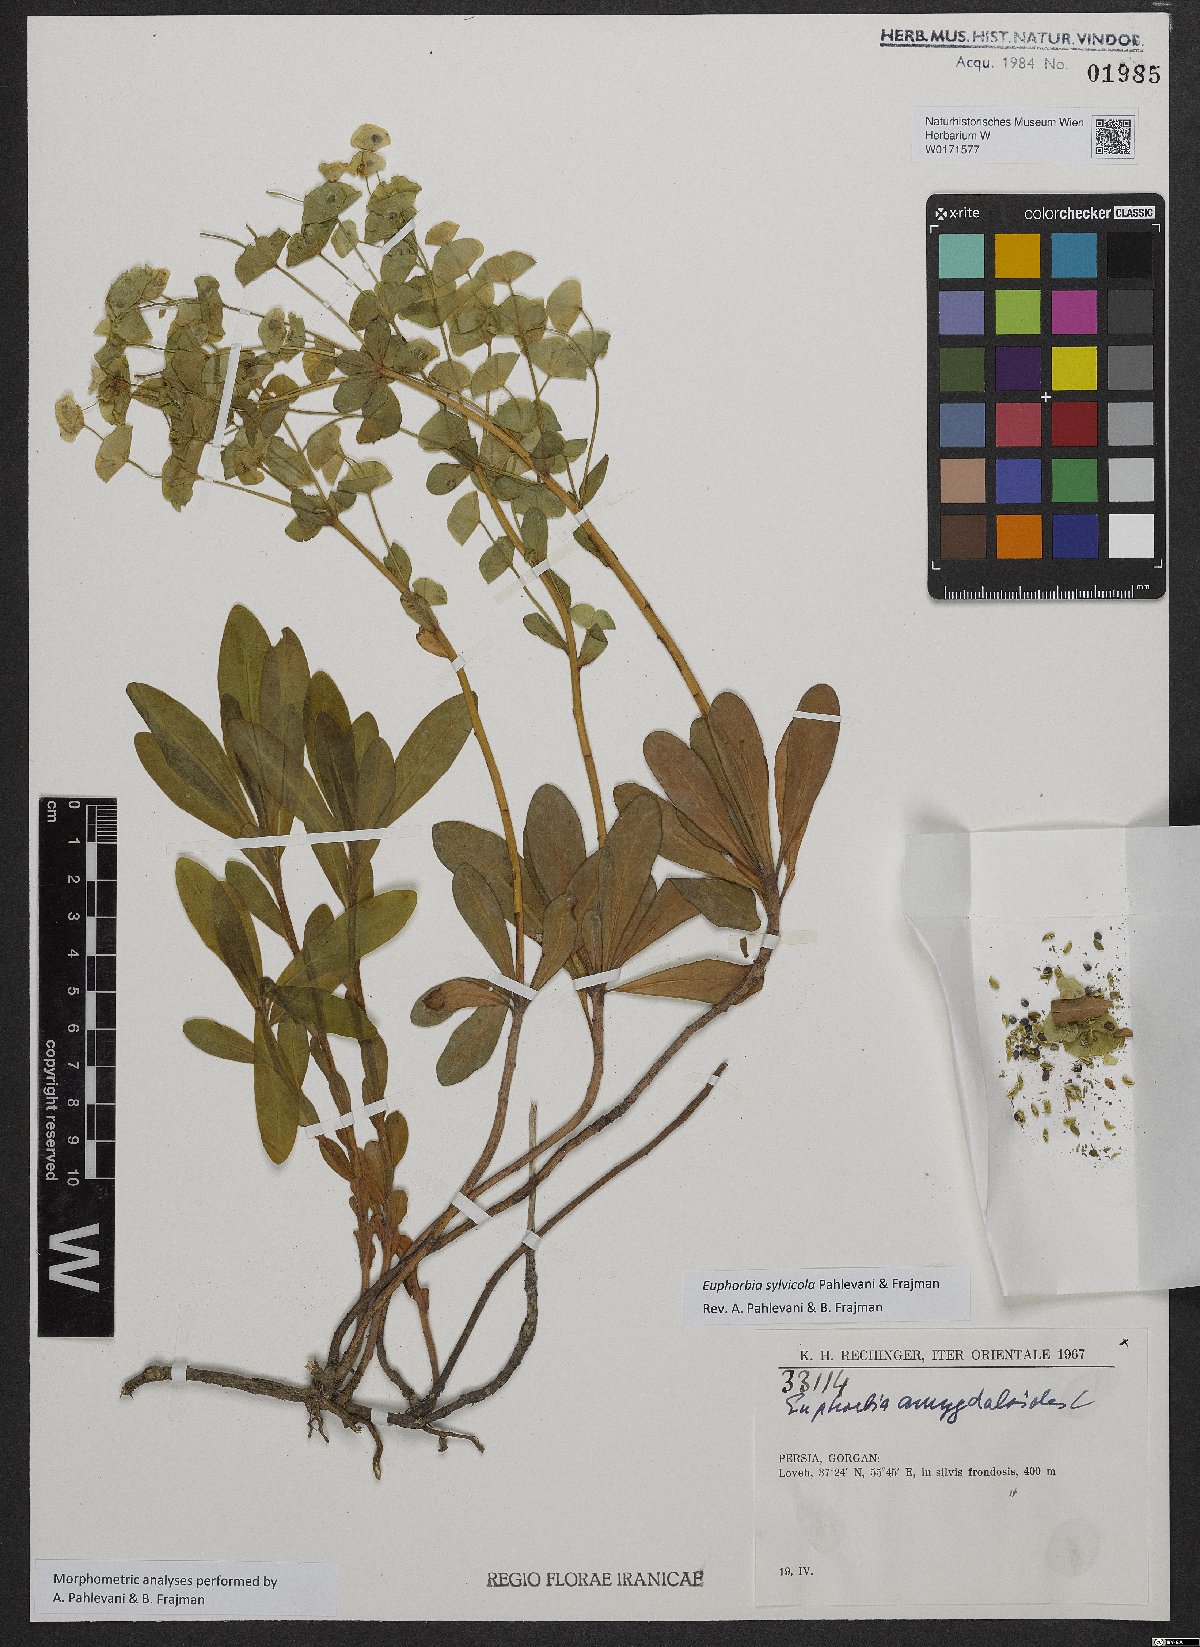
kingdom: Plantae
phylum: Tracheophyta
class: Magnoliopsida
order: Malpighiales
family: Euphorbiaceae
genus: Euphorbia
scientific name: Euphorbia juttae
